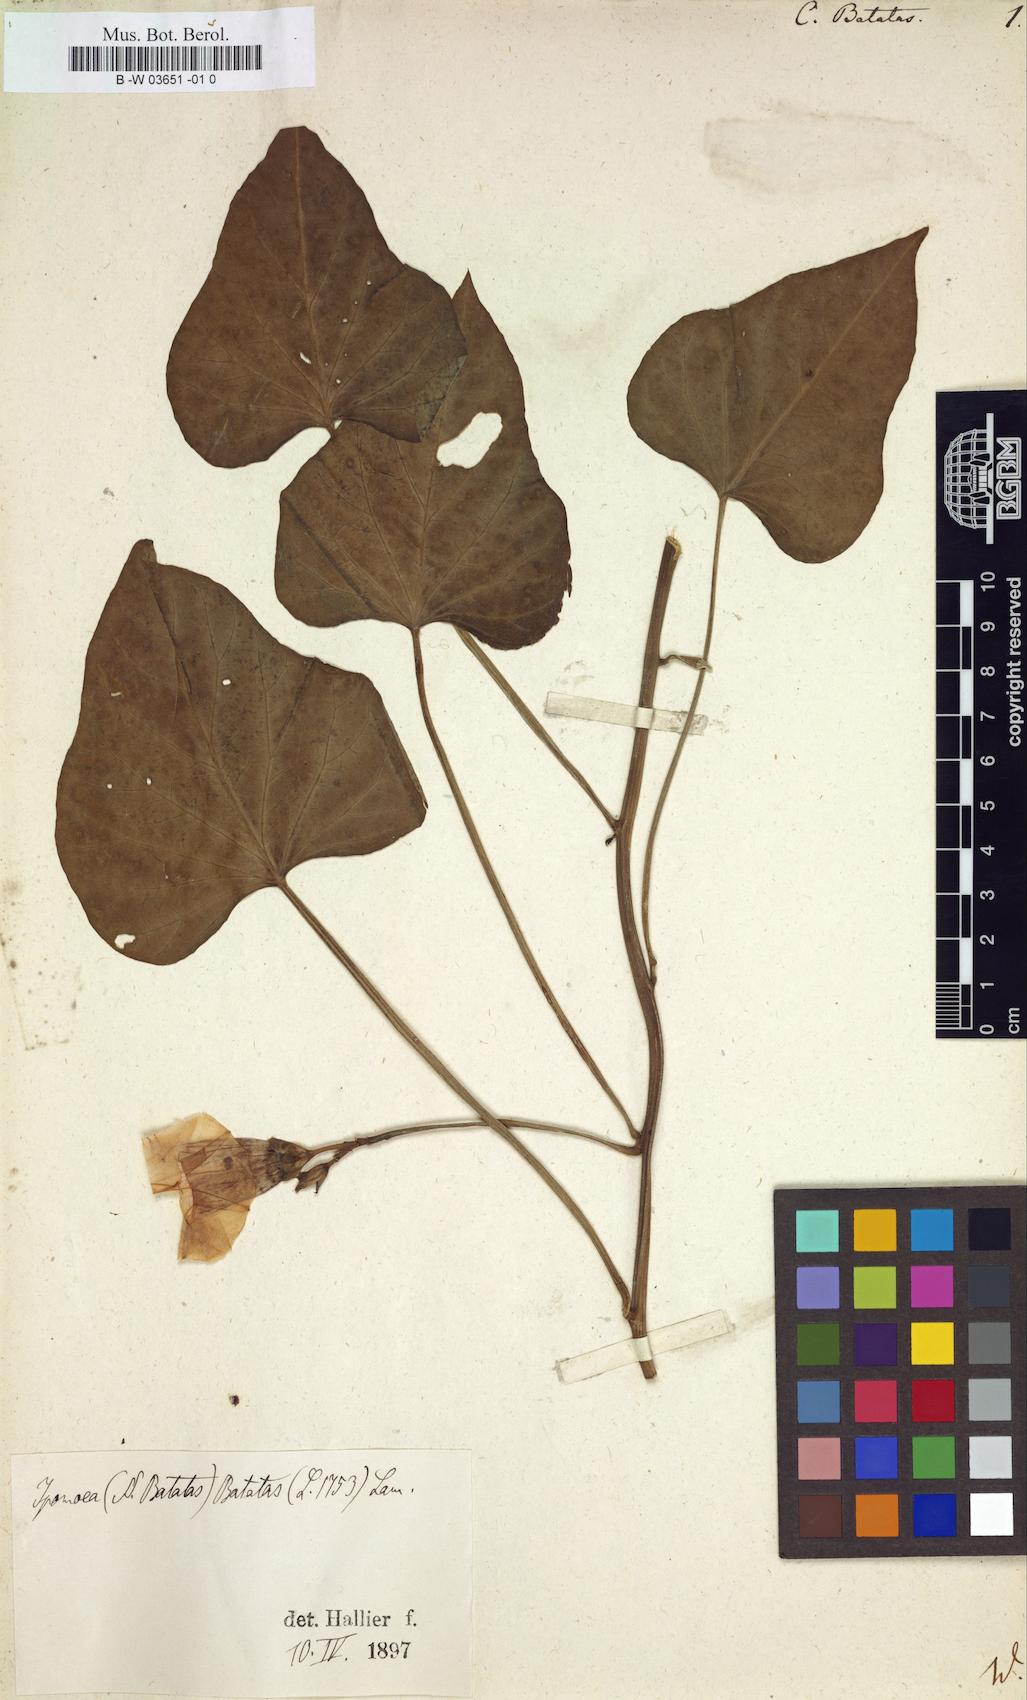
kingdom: Plantae
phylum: Tracheophyta
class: Magnoliopsida
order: Solanales
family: Convolvulaceae
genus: Ipomoea
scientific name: Ipomoea batatas
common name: Sweet-potato
